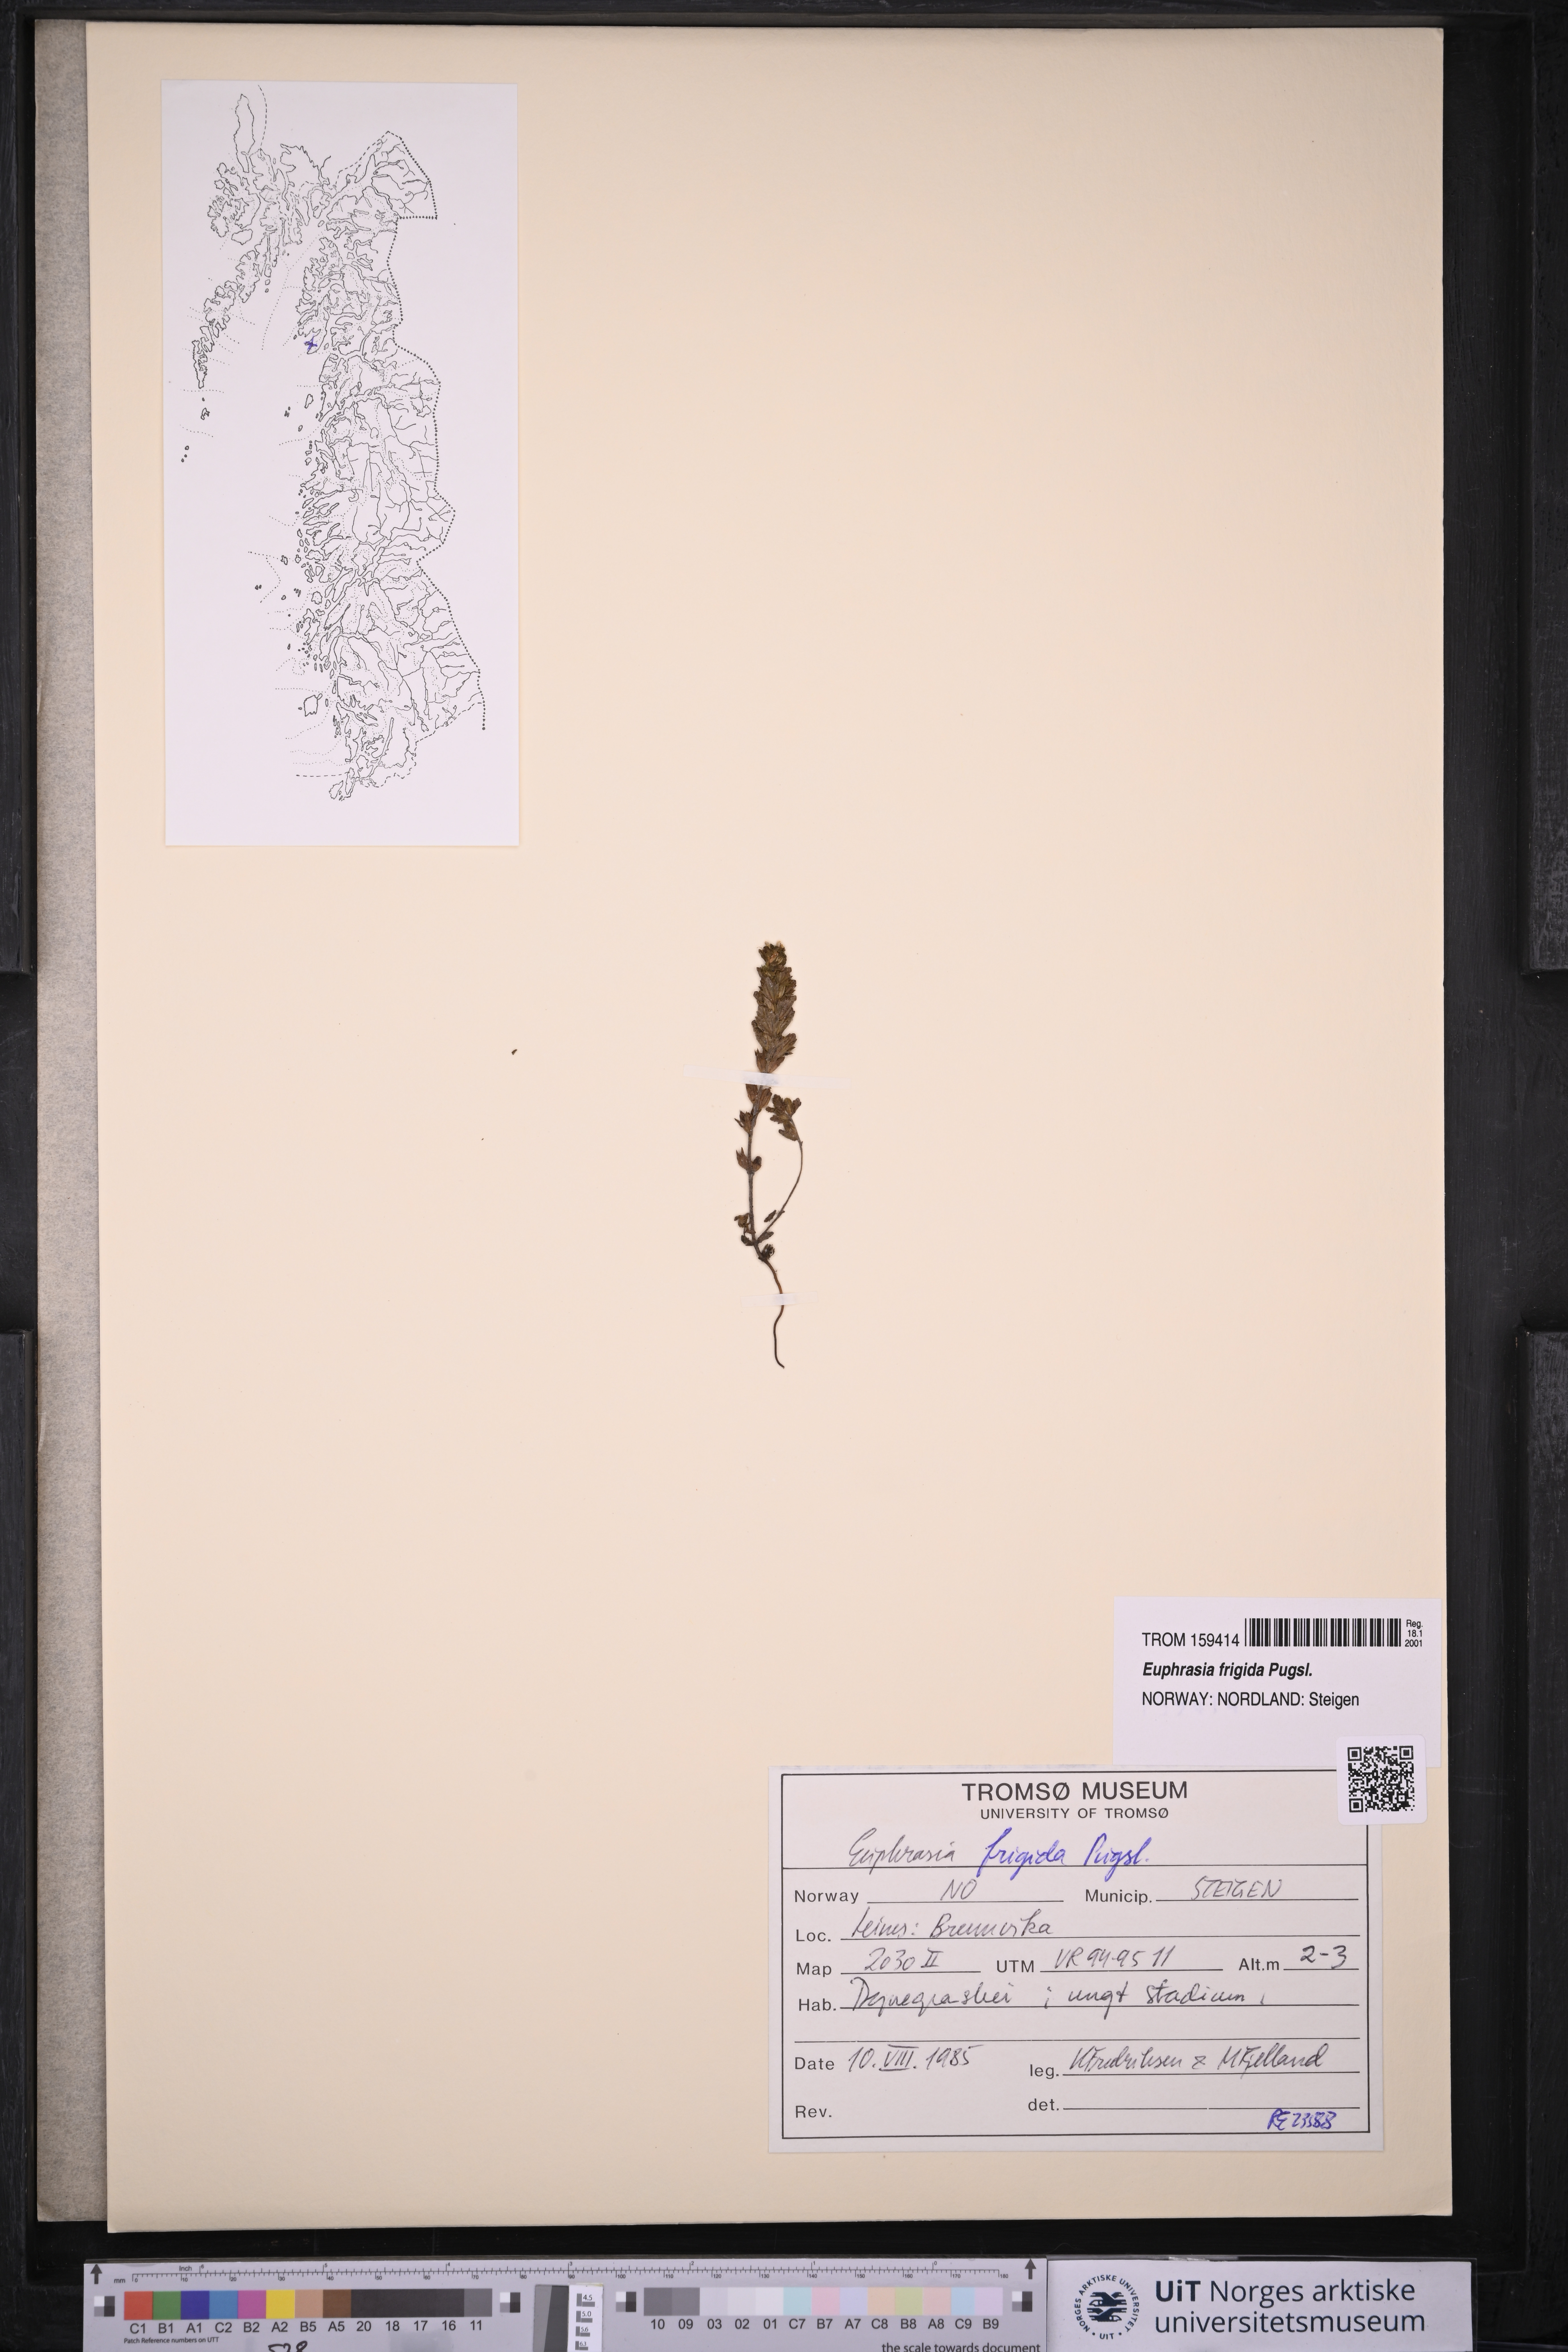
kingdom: Plantae
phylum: Tracheophyta
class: Magnoliopsida
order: Lamiales
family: Orobanchaceae
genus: Euphrasia
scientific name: Euphrasia frigida
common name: An eyebright
